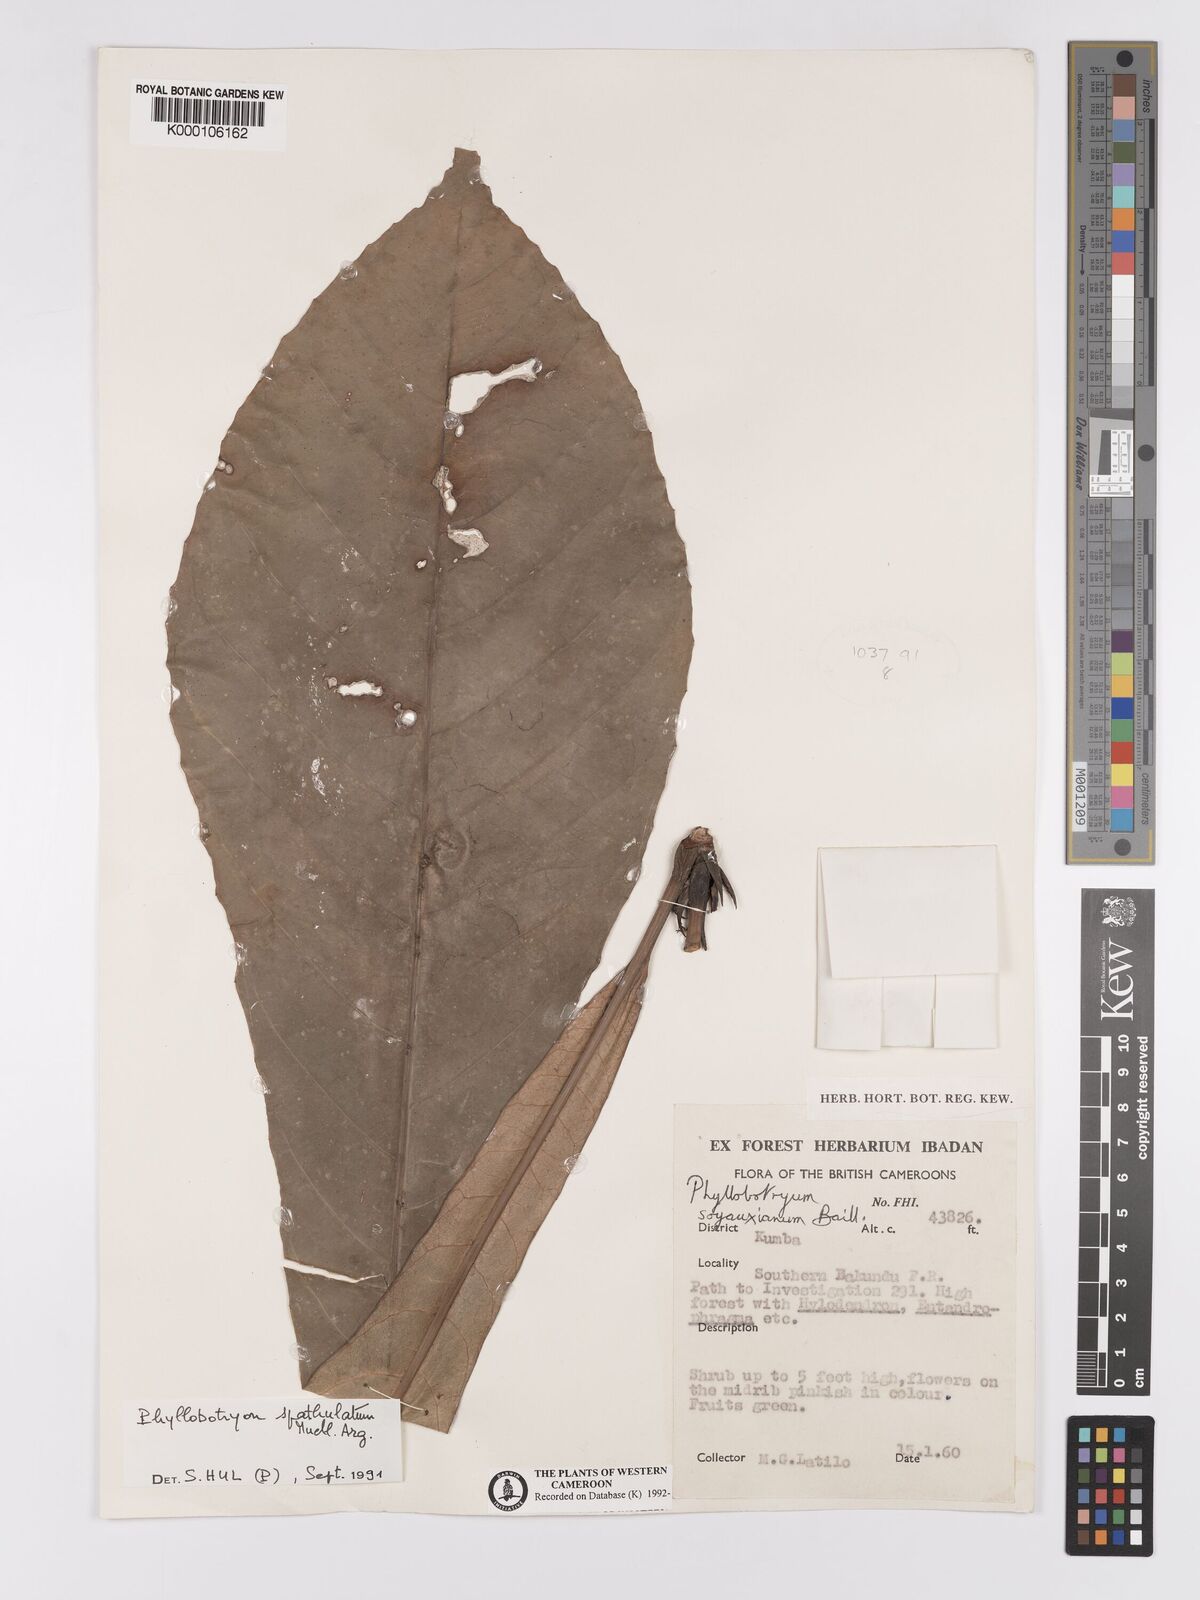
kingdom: Plantae
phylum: Tracheophyta
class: Magnoliopsida
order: Malpighiales
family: Salicaceae
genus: Phyllobotryon
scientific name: Phyllobotryon
